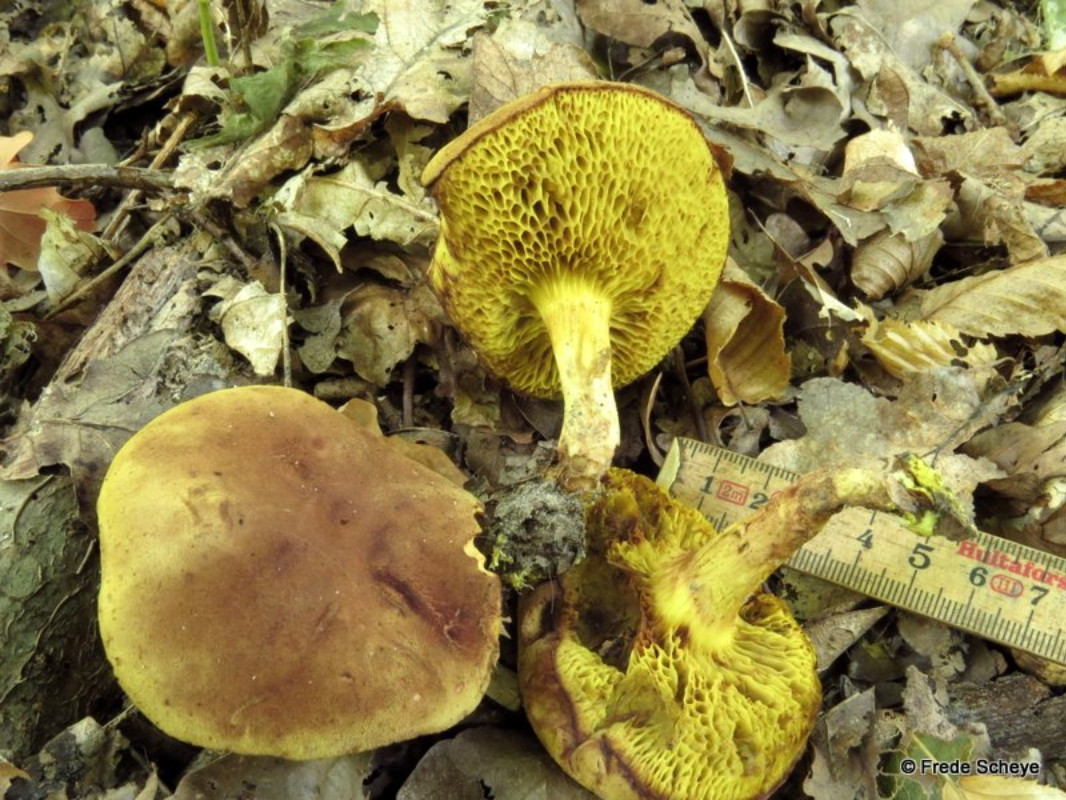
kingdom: Fungi
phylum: Basidiomycota
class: Agaricomycetes
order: Boletales
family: Boletaceae
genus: Xerocomus
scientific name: Xerocomus subtomentosus
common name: filtet rørhat
